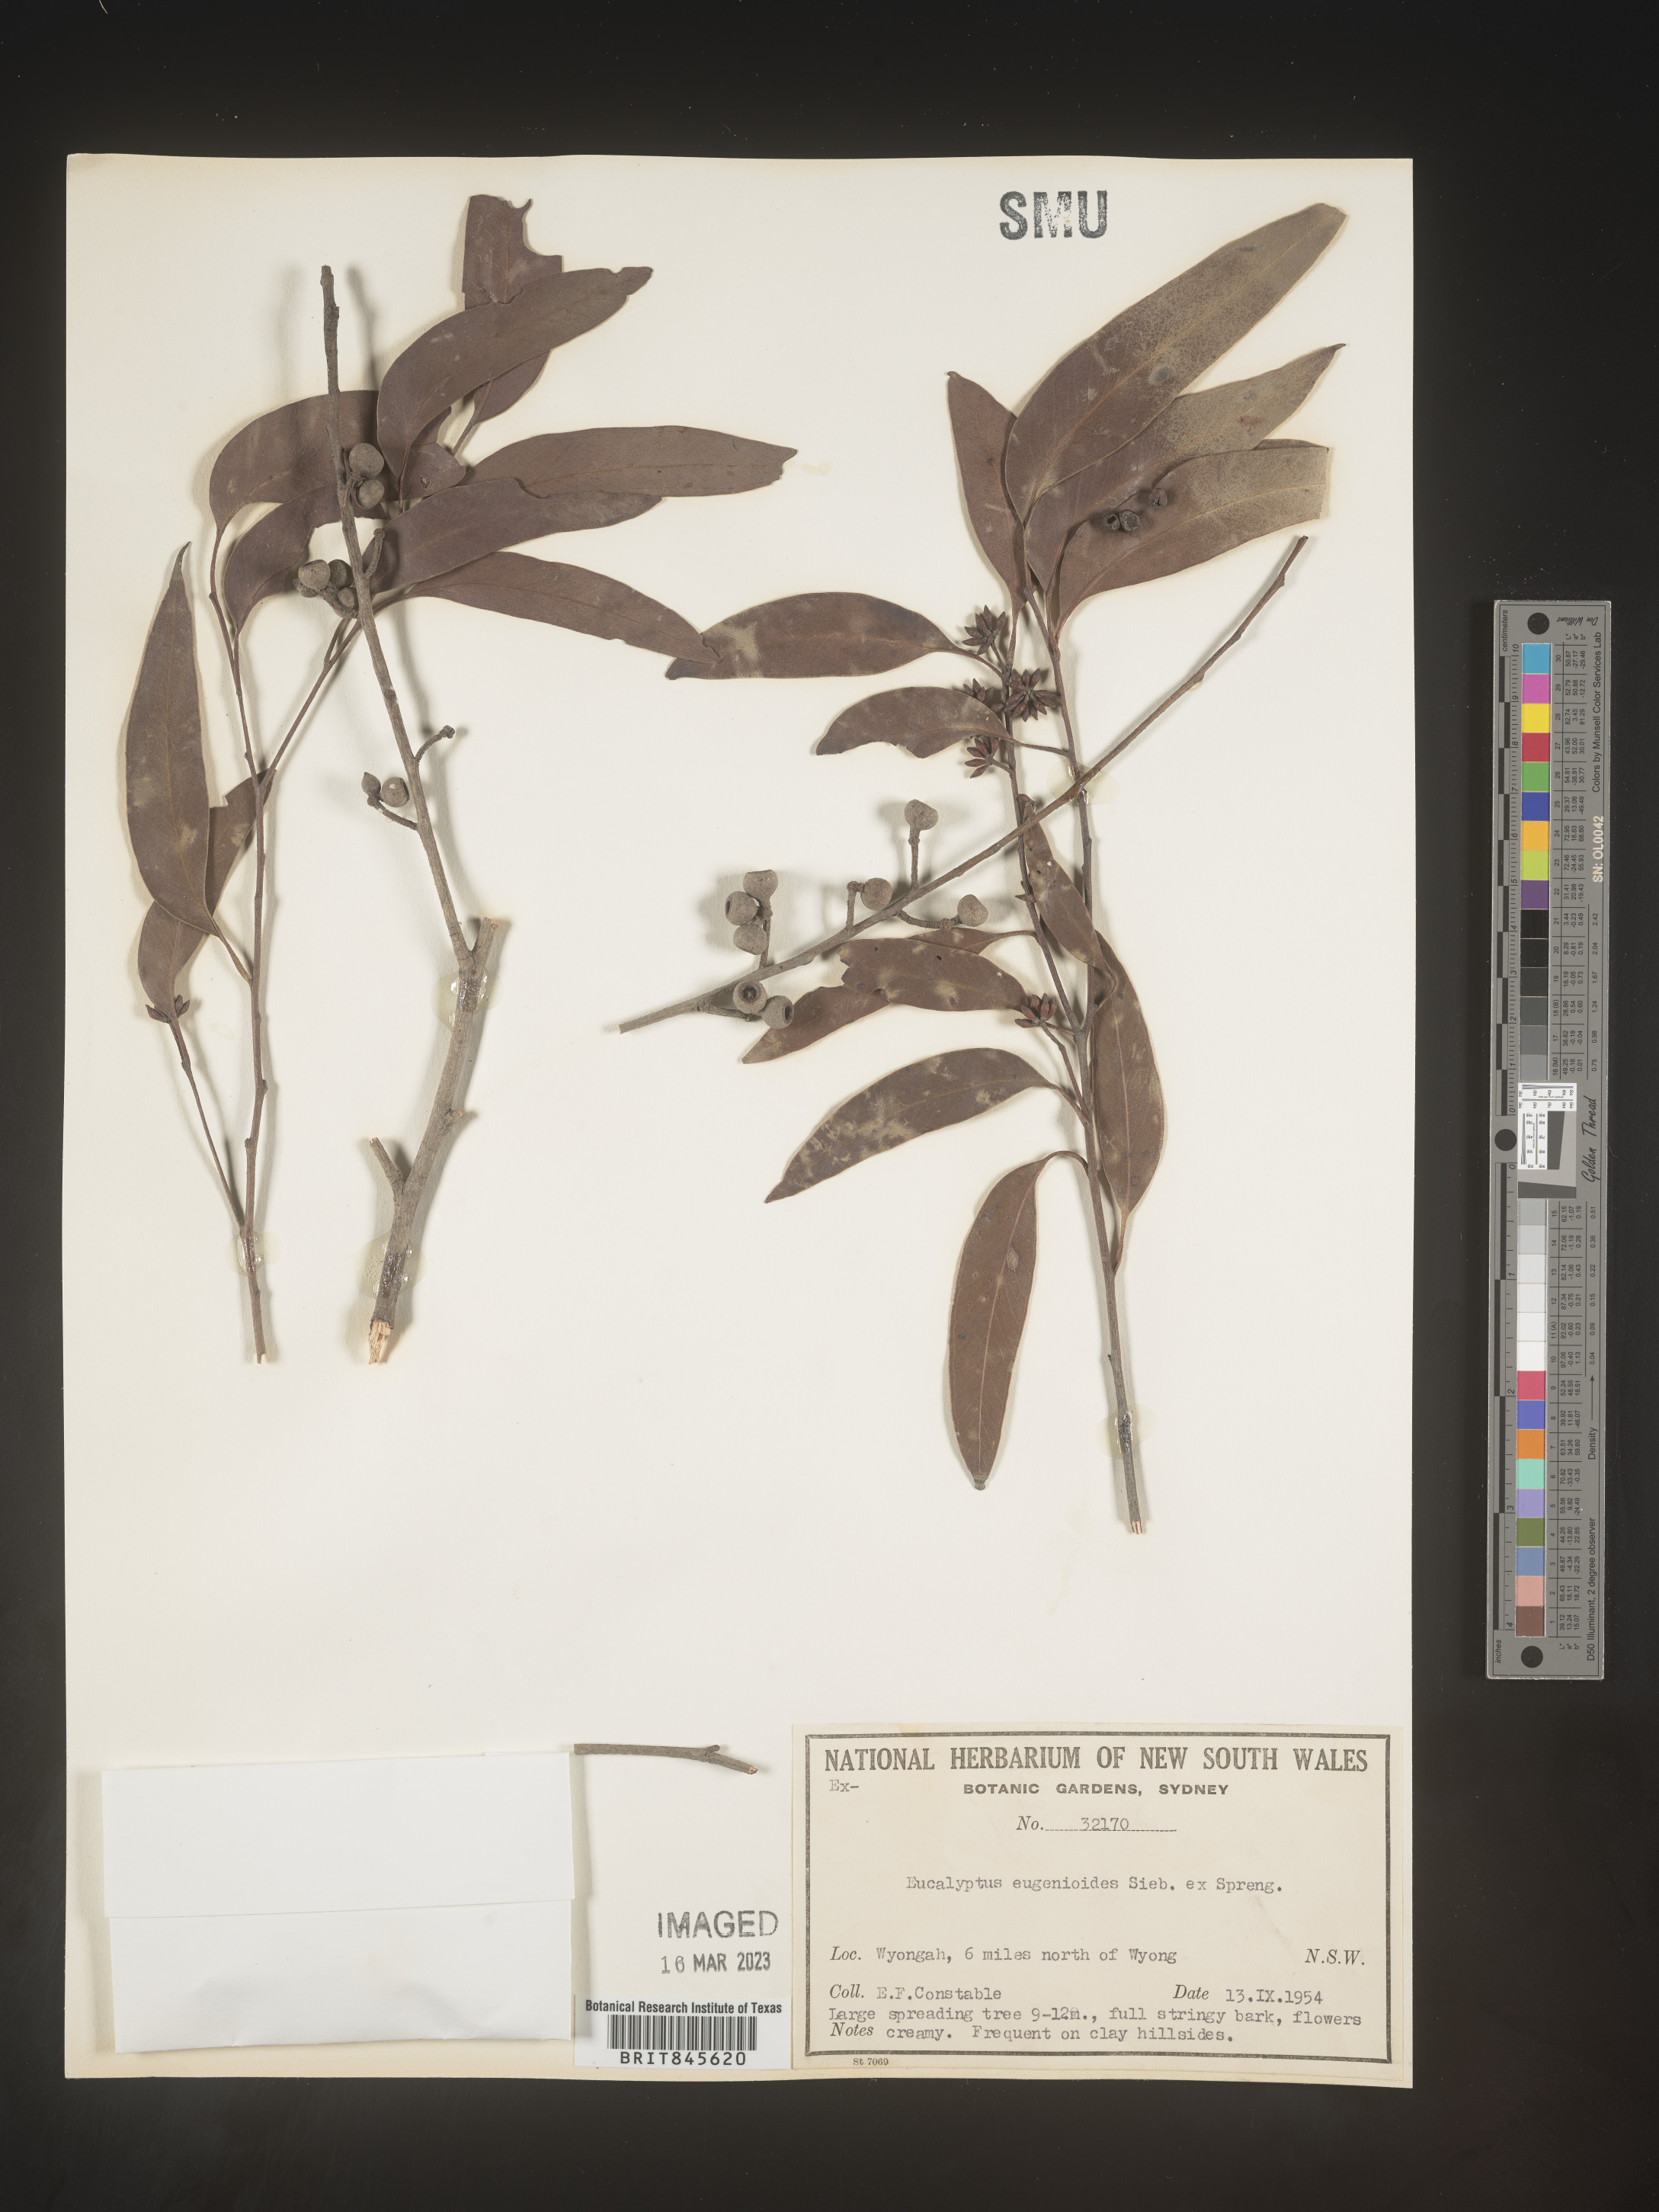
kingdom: Plantae
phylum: Tracheophyta
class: Magnoliopsida
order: Myrtales
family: Myrtaceae
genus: Eucalyptus
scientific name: Eucalyptus
